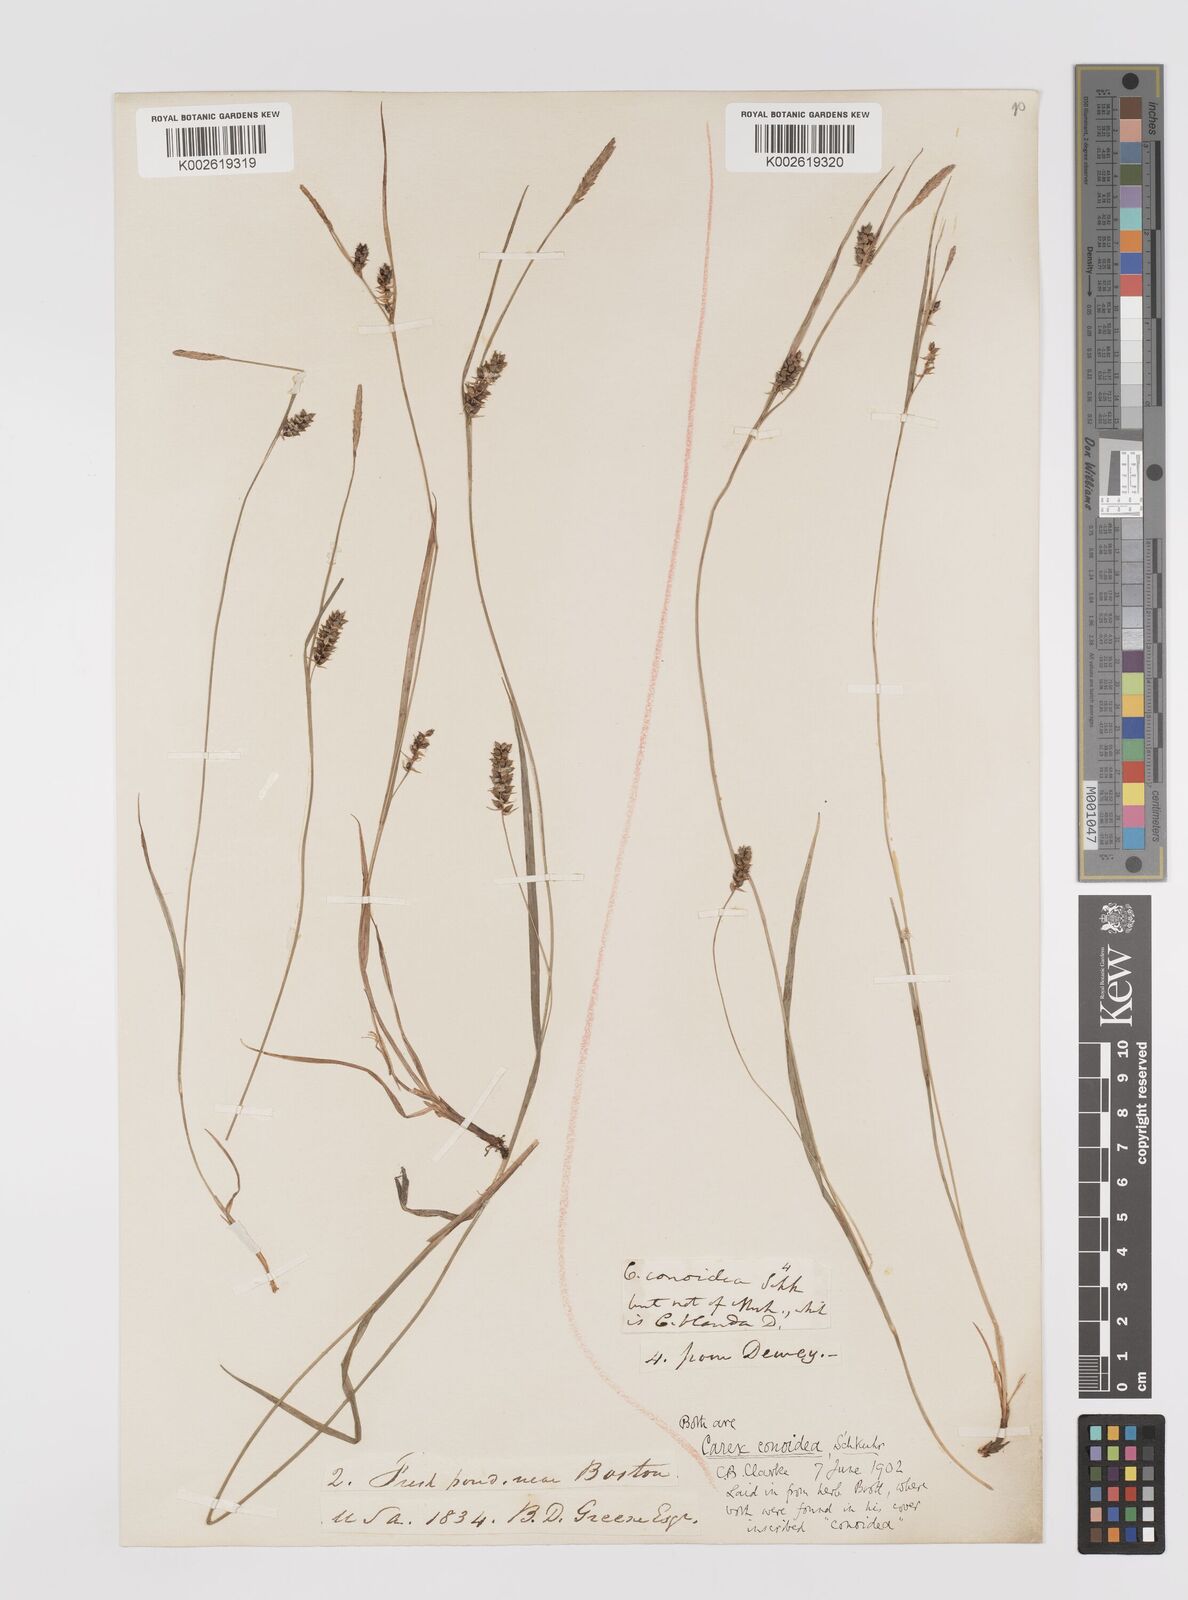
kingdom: Plantae
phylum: Tracheophyta
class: Liliopsida
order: Poales
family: Cyperaceae
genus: Carex
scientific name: Carex conoidea
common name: Cone shaped sedge
